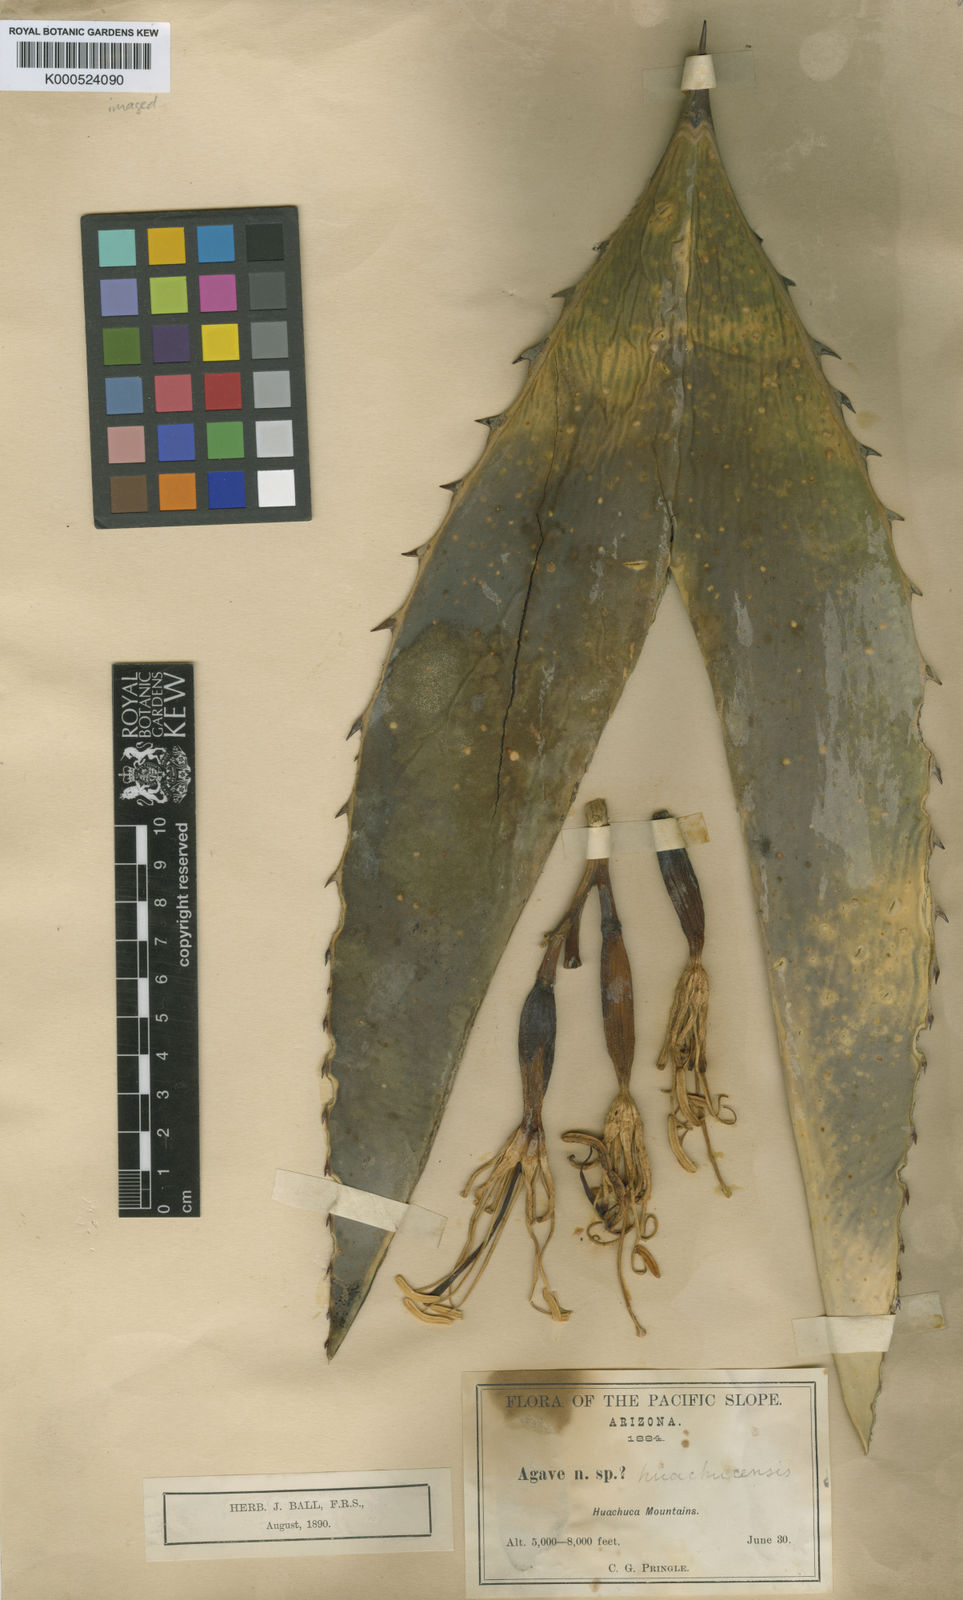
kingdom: Plantae
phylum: Tracheophyta
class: Liliopsida
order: Asparagales
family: Asparagaceae
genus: Agave
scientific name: Agave parryi
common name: Parry's agave
